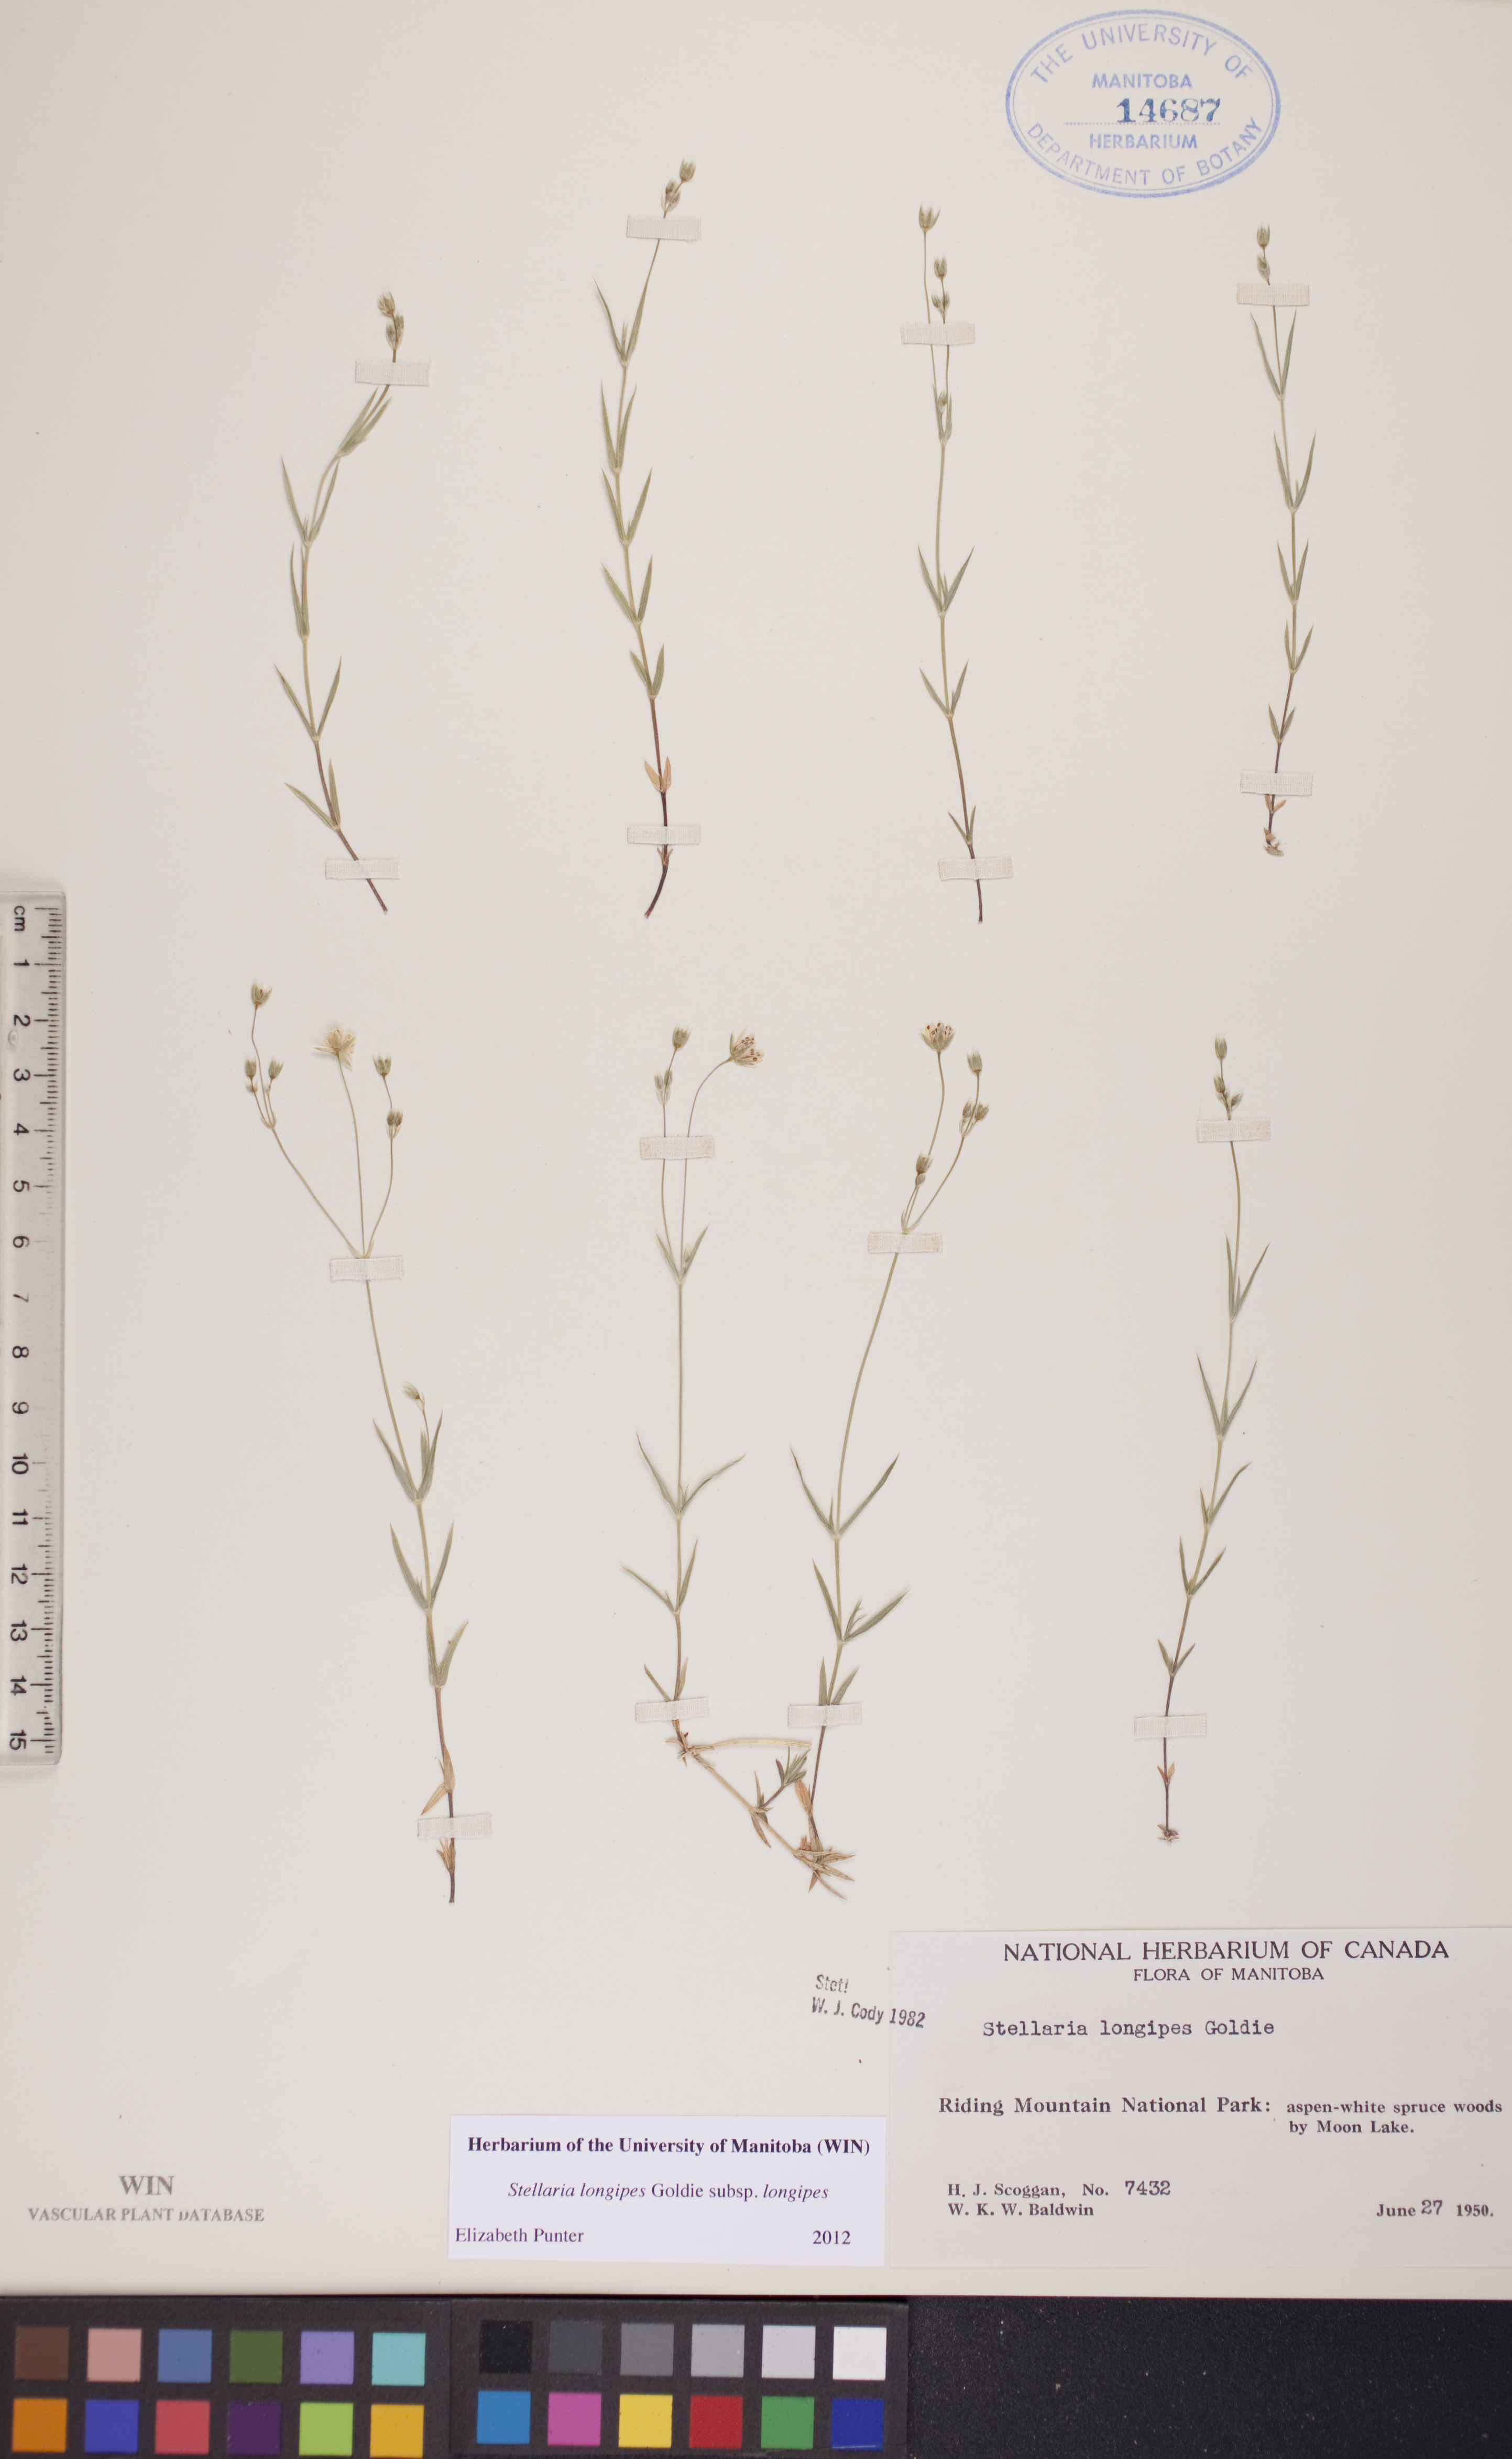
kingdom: Plantae
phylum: Tracheophyta
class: Magnoliopsida
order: Caryophyllales
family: Caryophyllaceae
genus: Stellaria
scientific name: Stellaria longipes
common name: Goldie's starwort
